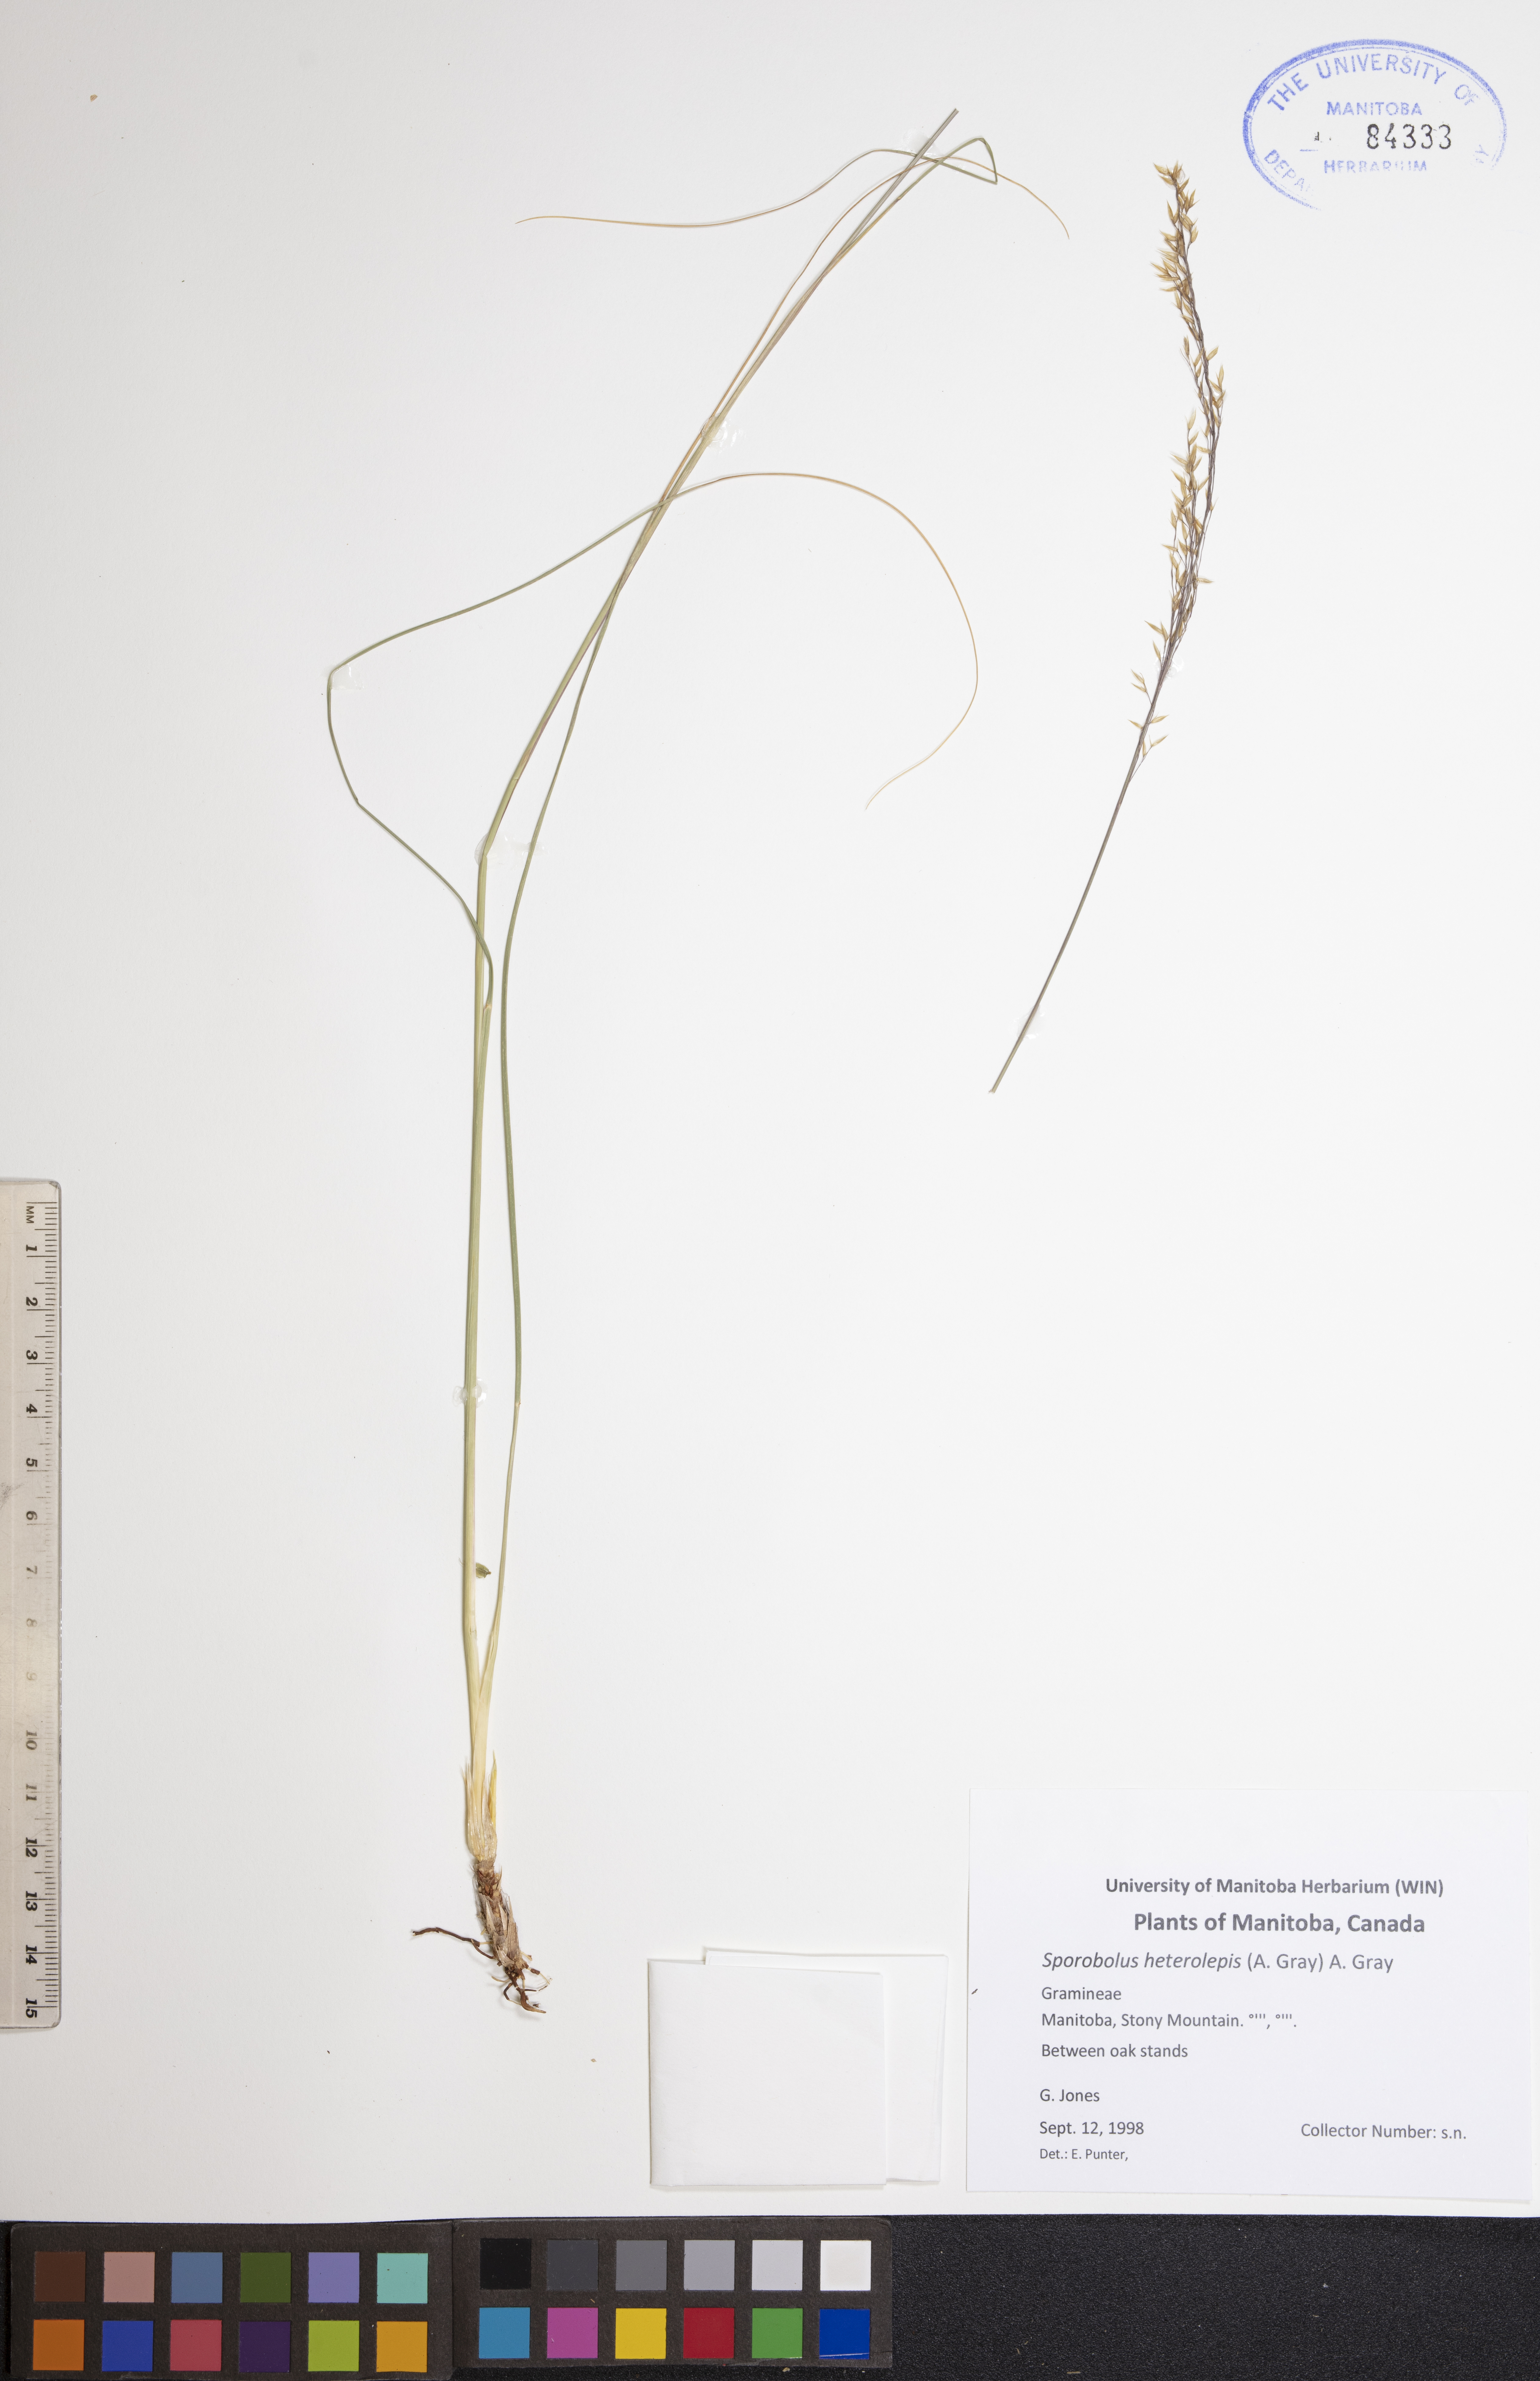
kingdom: Plantae
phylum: Tracheophyta
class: Liliopsida
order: Poales
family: Poaceae
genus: Sporobolus
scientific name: Sporobolus heterolepis
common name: Prairie dropseed
